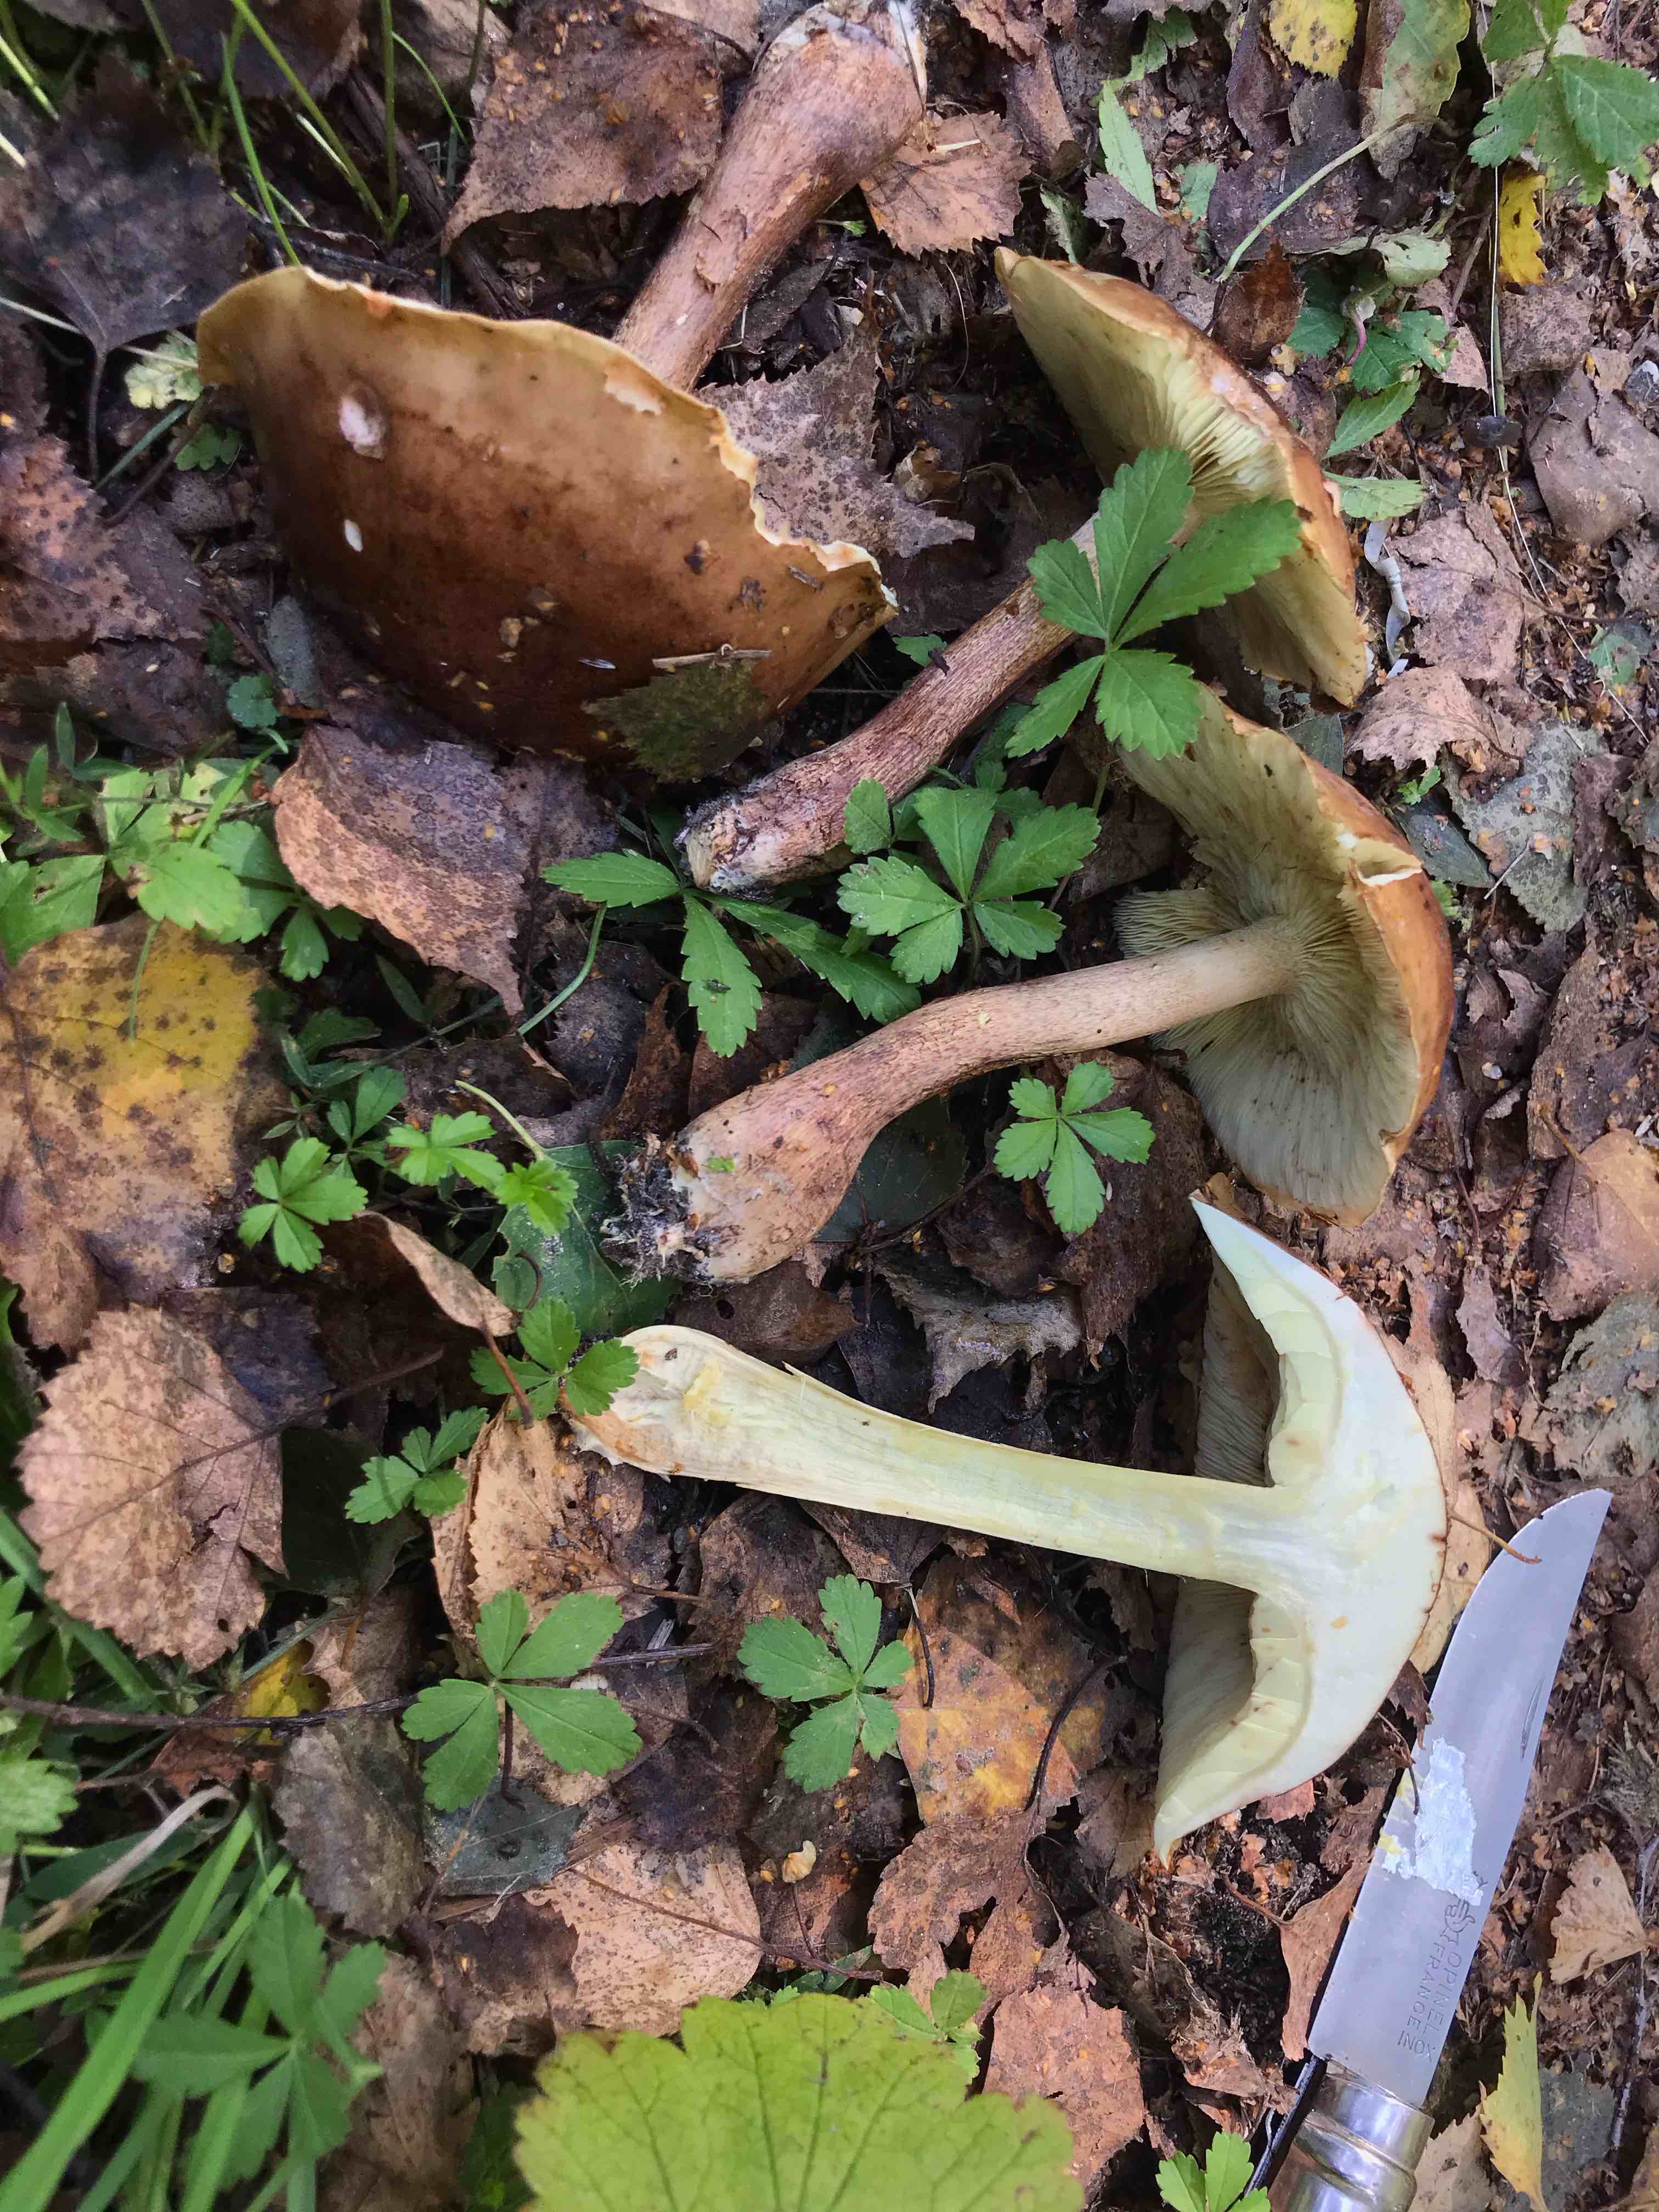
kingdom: Fungi
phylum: Basidiomycota
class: Agaricomycetes
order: Agaricales
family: Tricholomataceae
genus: Tricholoma
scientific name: Tricholoma fulvum
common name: birke-ridderhat
